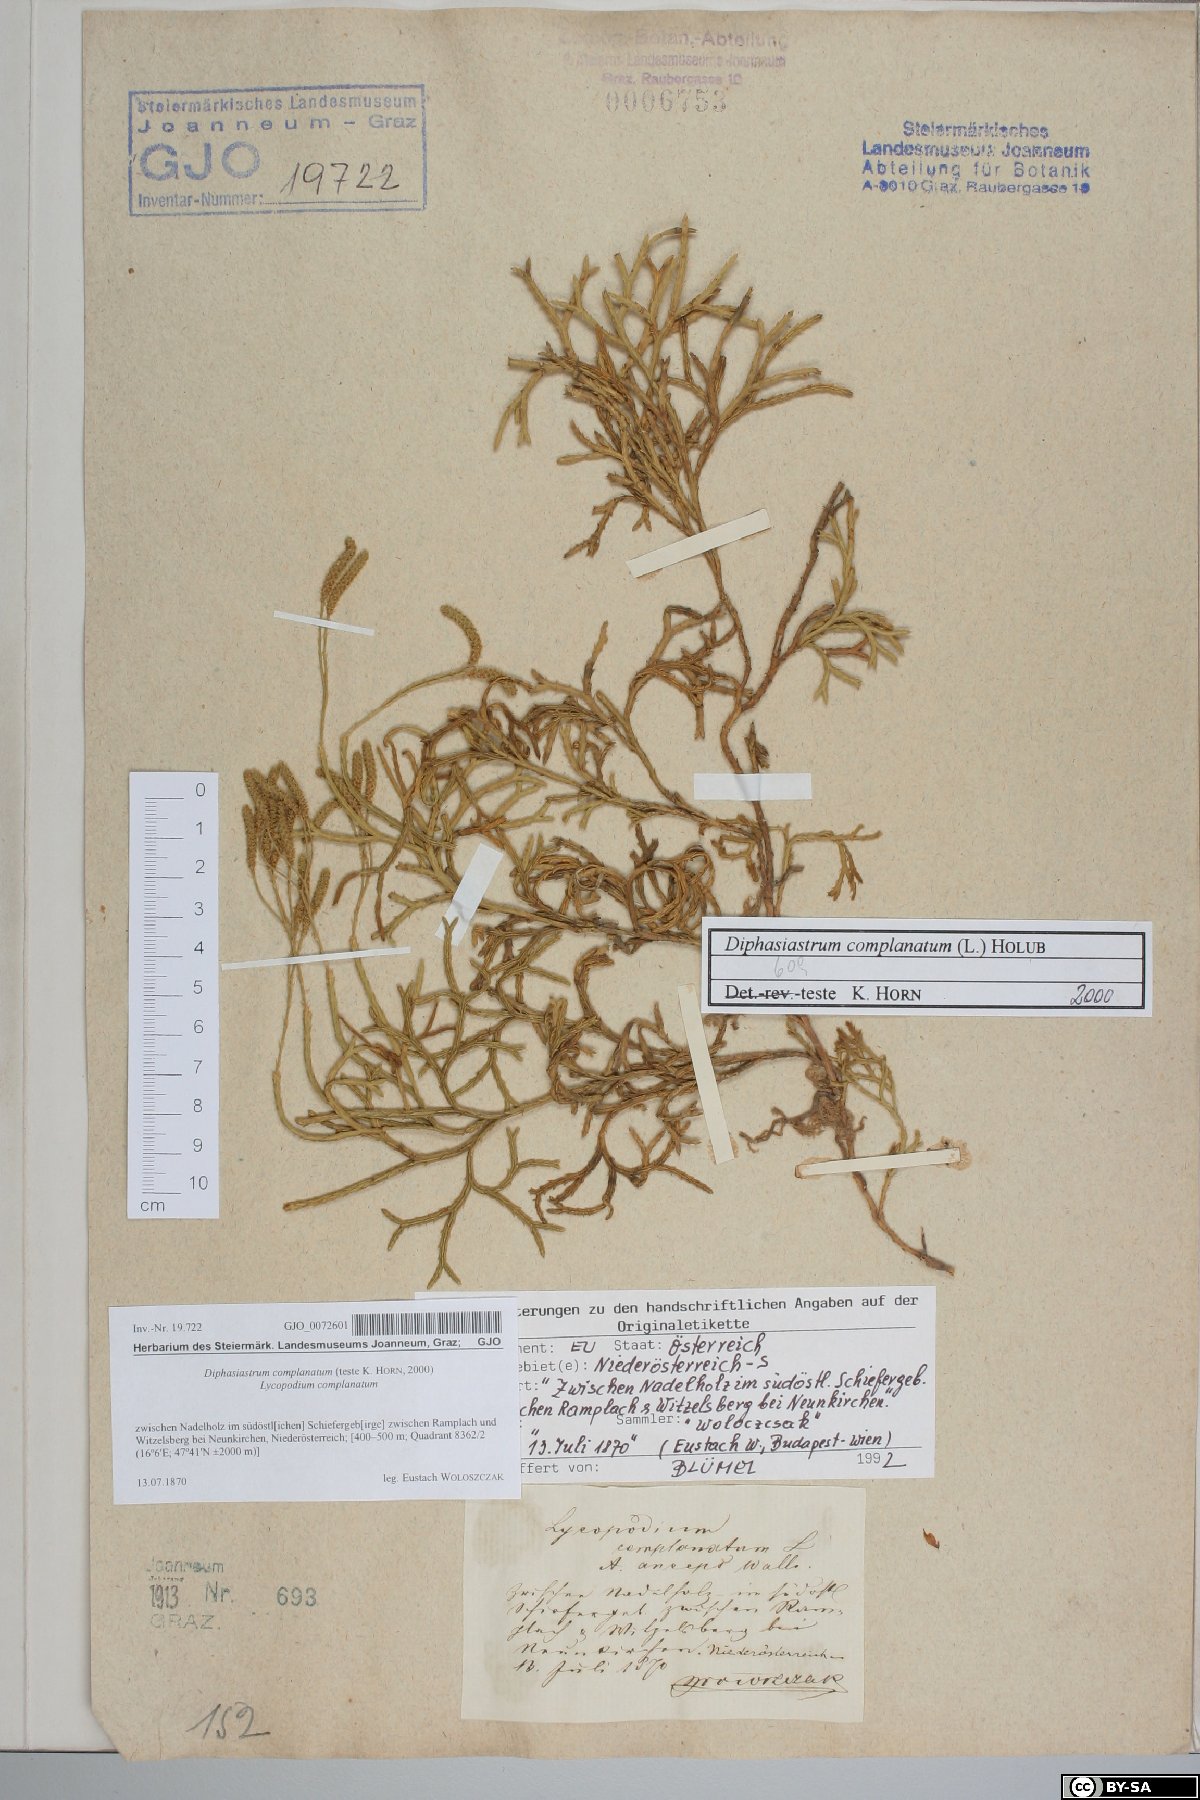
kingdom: Plantae
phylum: Tracheophyta
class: Lycopodiopsida
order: Lycopodiales
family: Lycopodiaceae
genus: Diphasiastrum
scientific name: Diphasiastrum complanatum
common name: Northern running-pine
